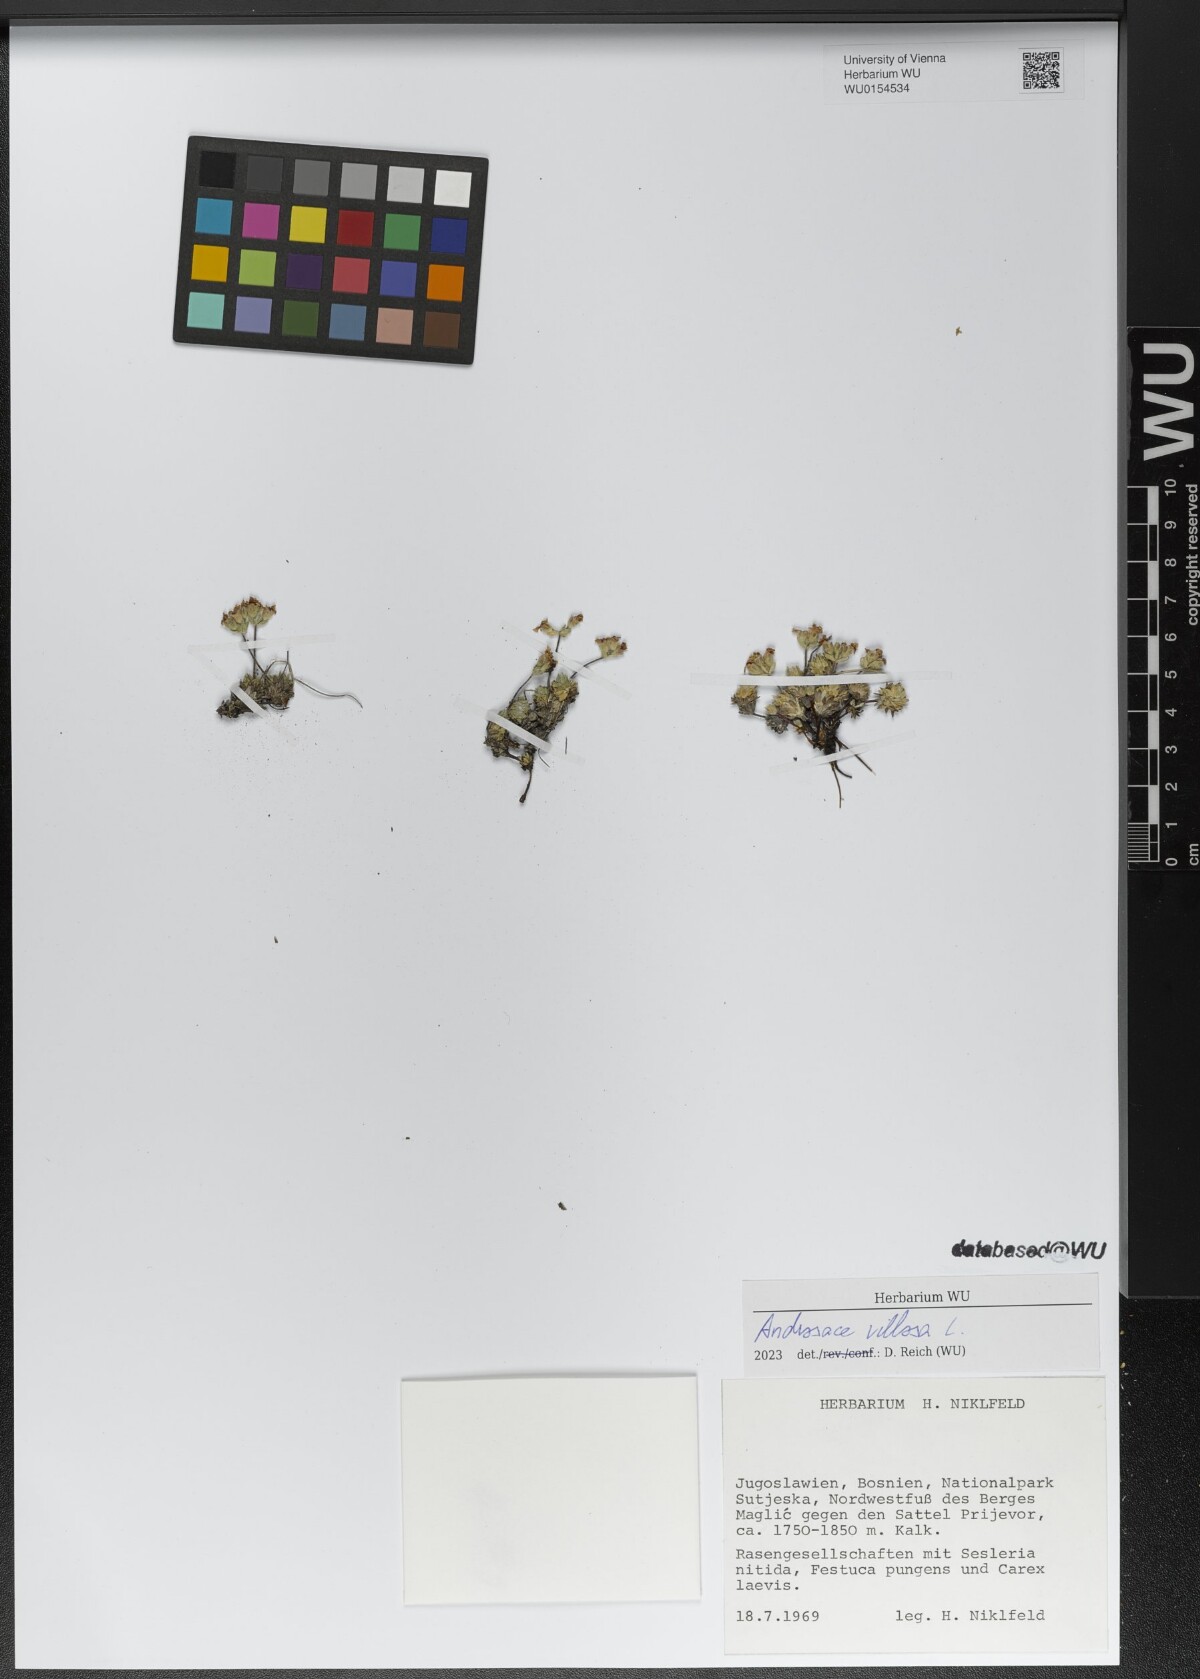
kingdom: Plantae
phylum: Tracheophyta
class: Magnoliopsida
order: Ericales
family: Primulaceae
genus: Androsace
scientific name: Androsace villosa
